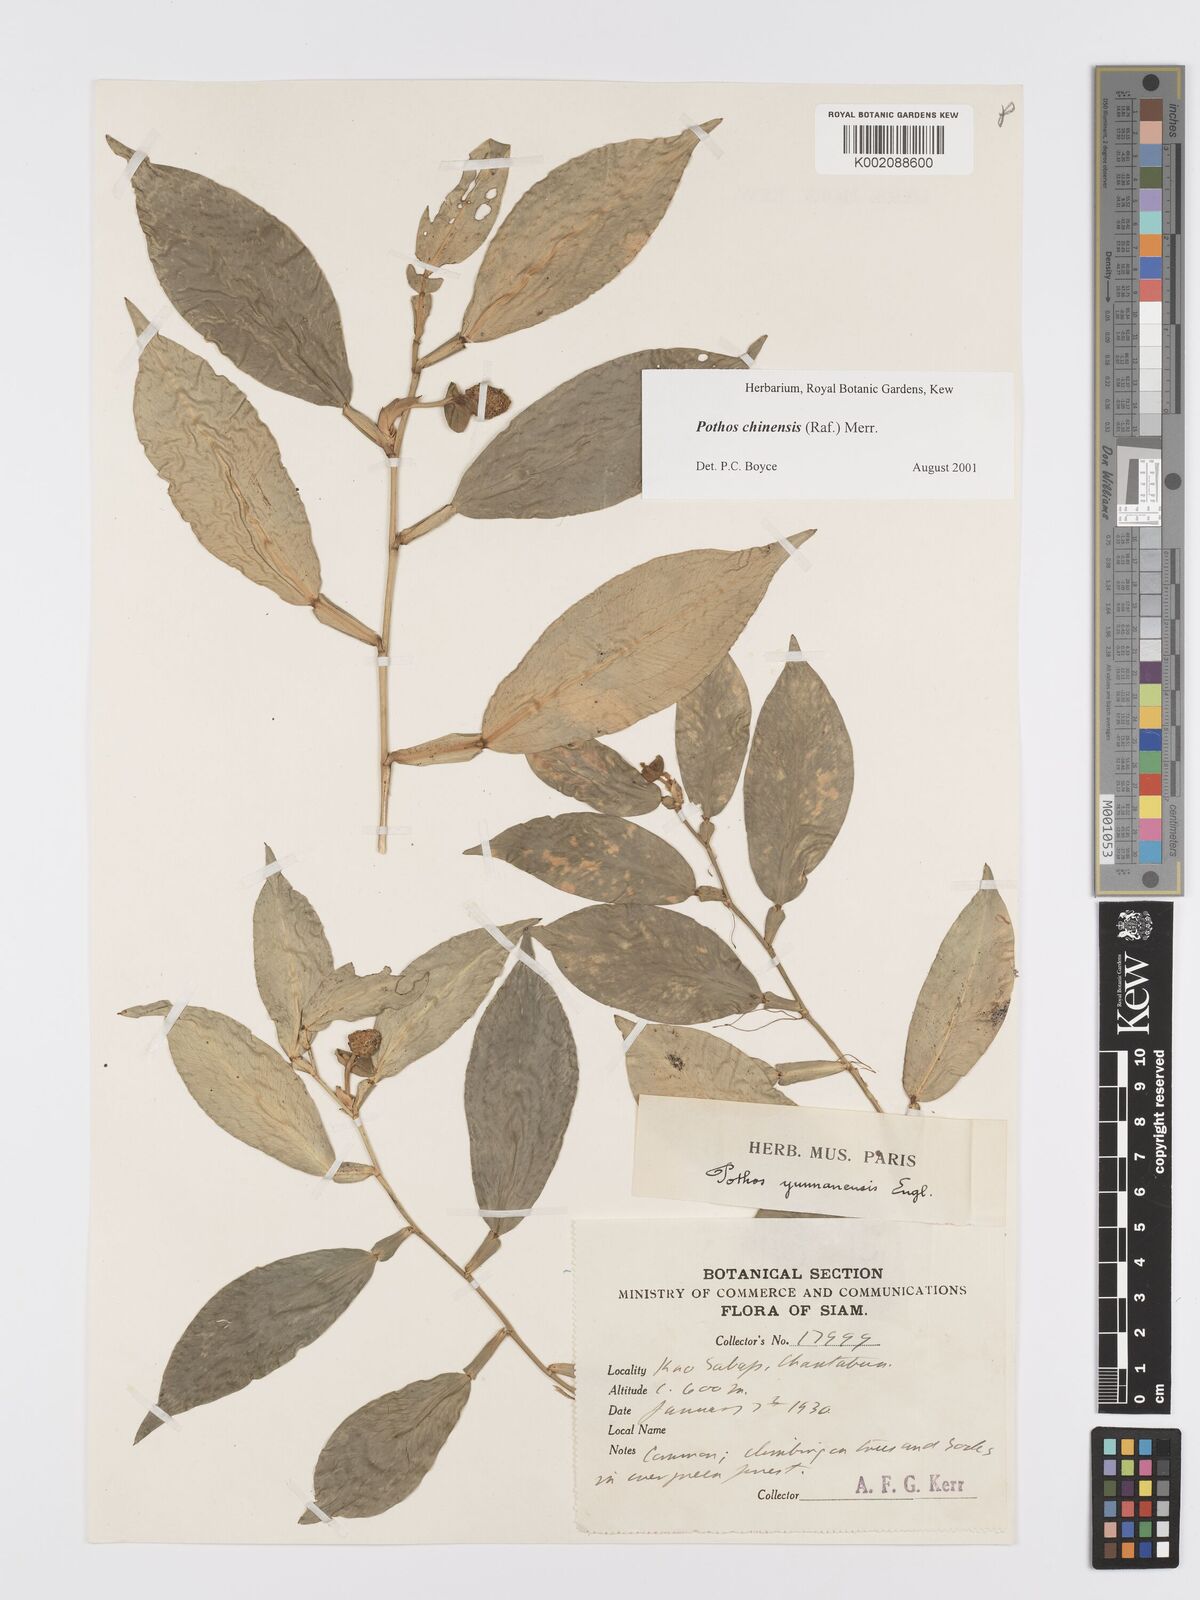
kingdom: Plantae
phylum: Tracheophyta
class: Liliopsida
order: Alismatales
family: Araceae
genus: Pothos
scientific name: Pothos chinensis
